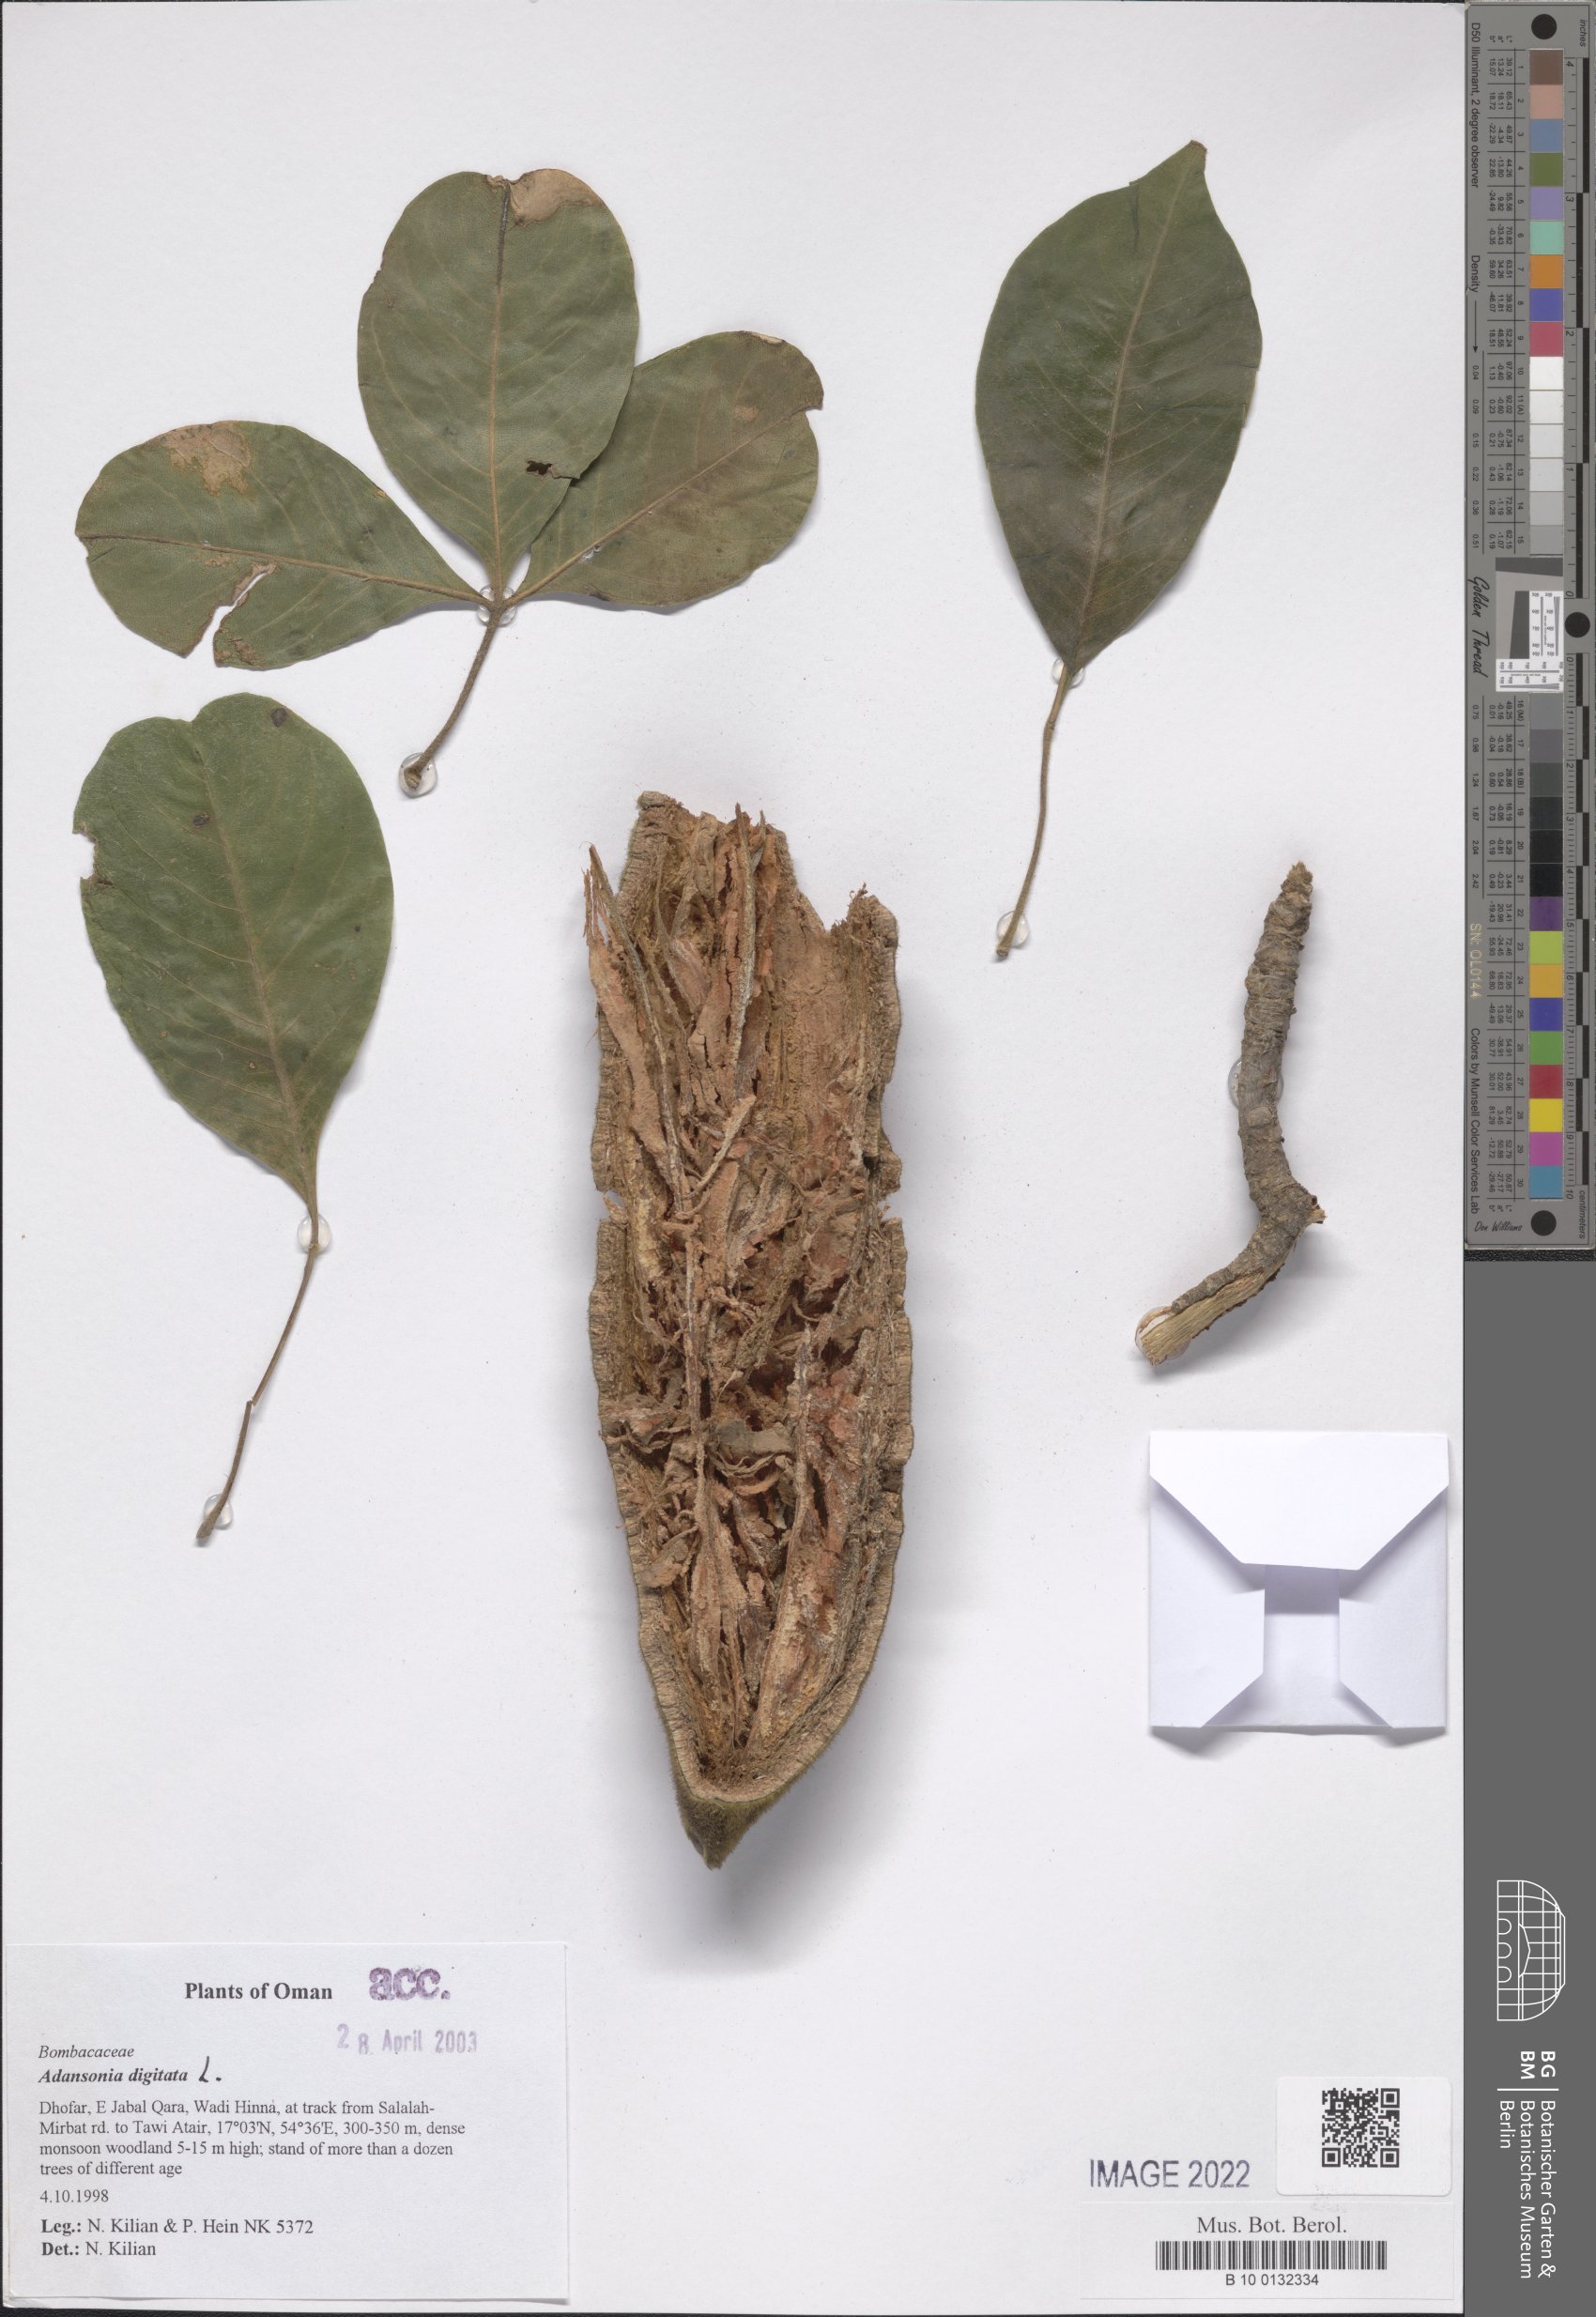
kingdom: Plantae
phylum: Tracheophyta
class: Magnoliopsida
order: Malvales
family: Malvaceae
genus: Adansonia
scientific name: Adansonia digitata
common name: Dead-rat-tree
